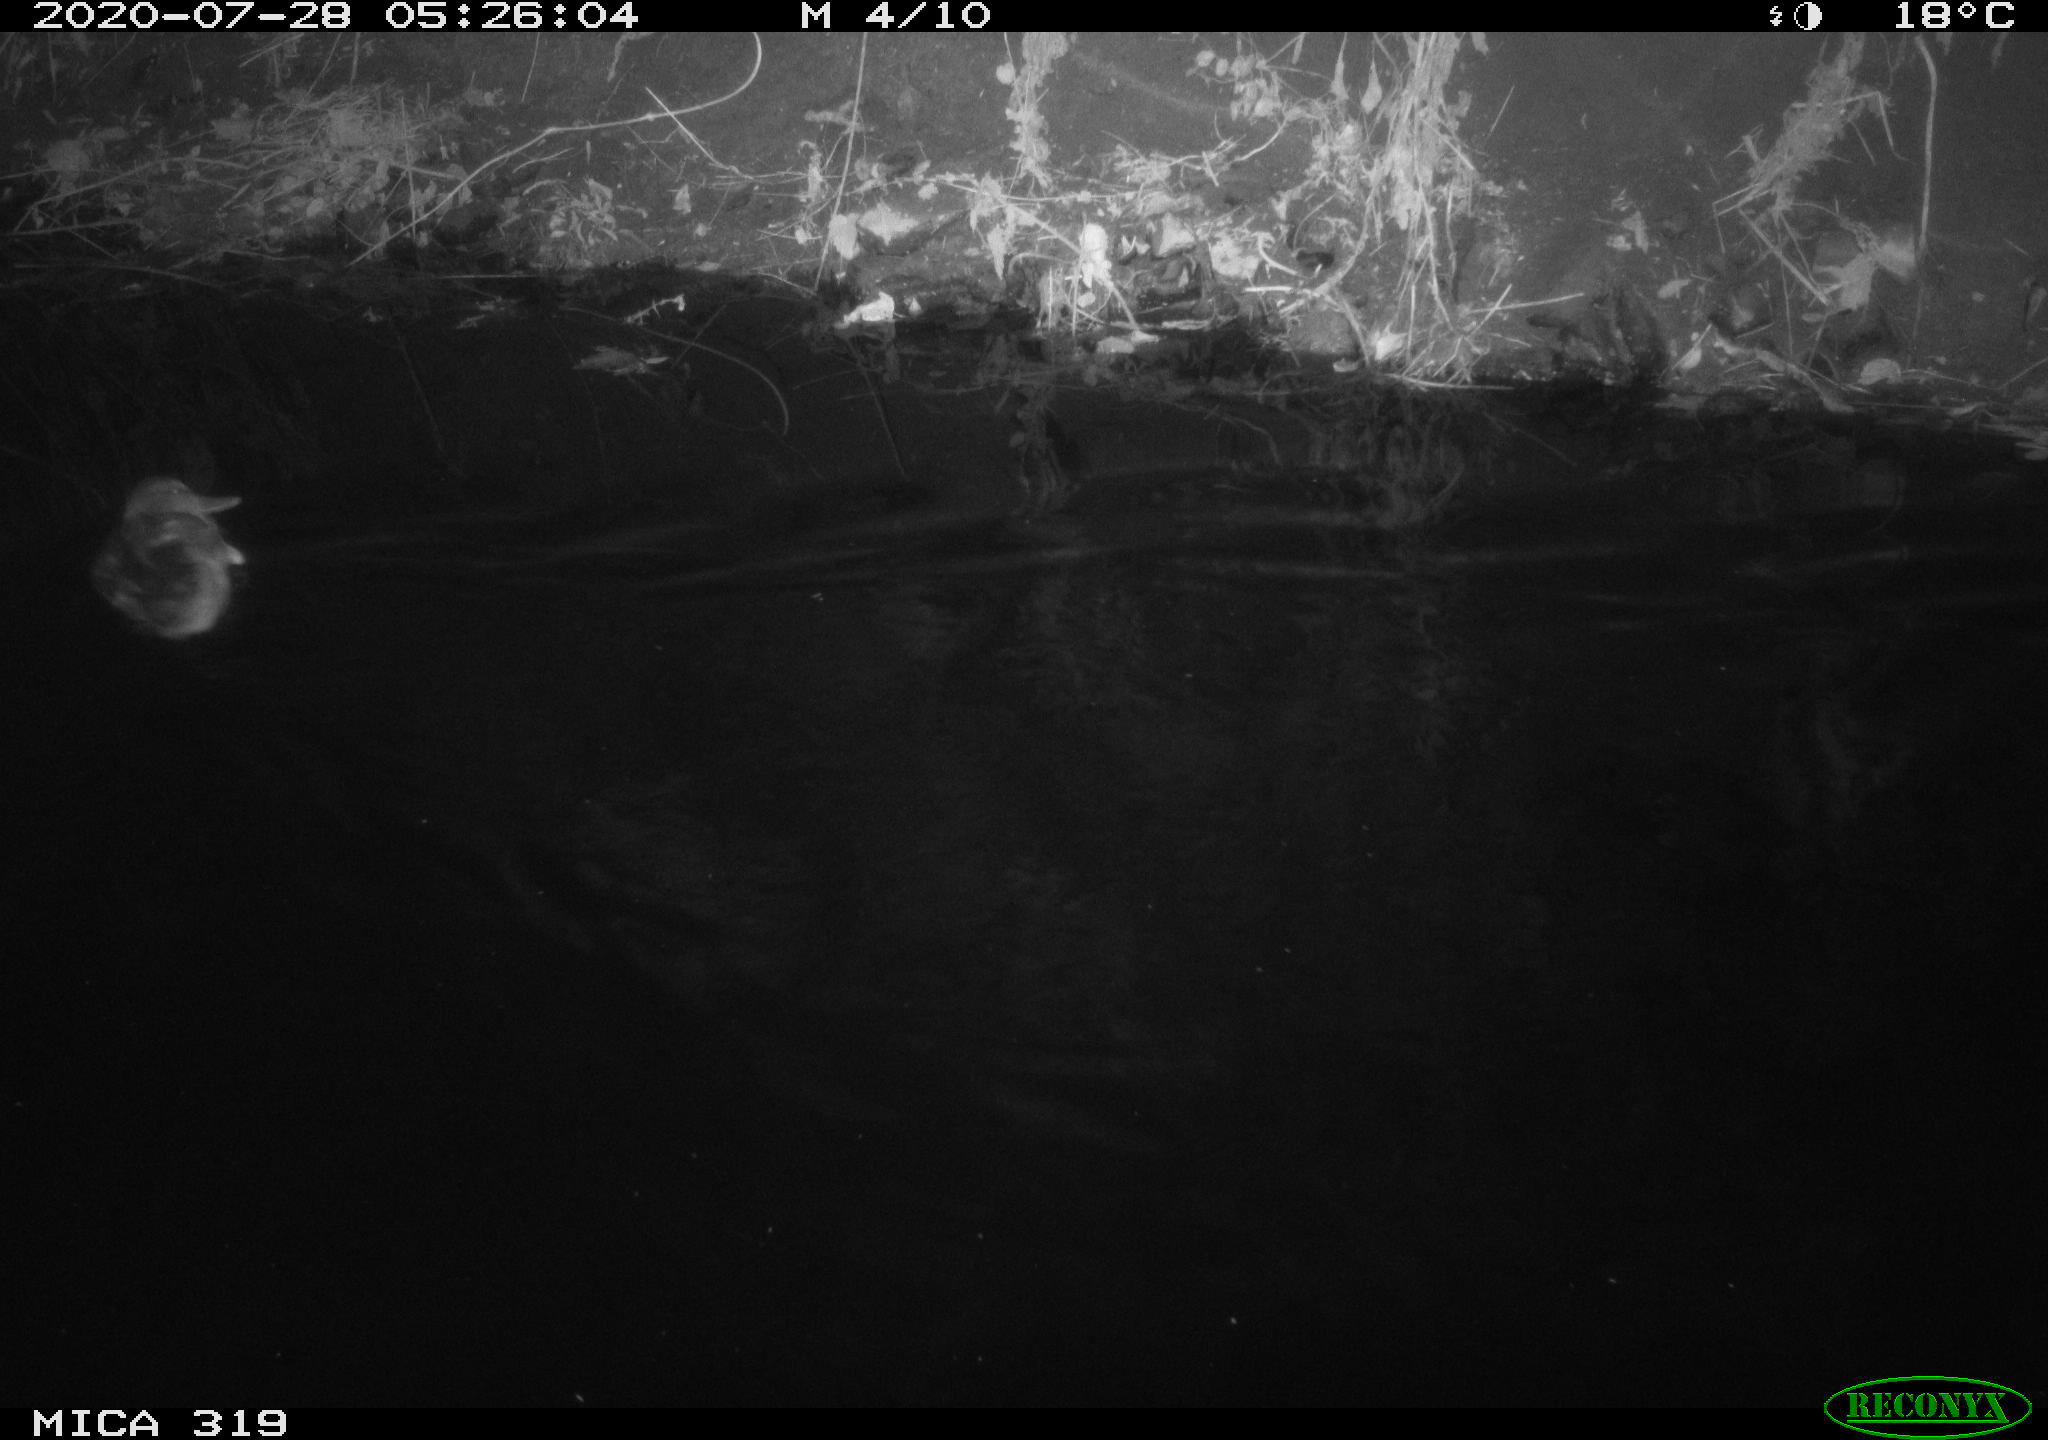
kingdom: Animalia
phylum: Chordata
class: Aves
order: Anseriformes
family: Anatidae
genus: Anas
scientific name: Anas platyrhynchos
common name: Mallard
